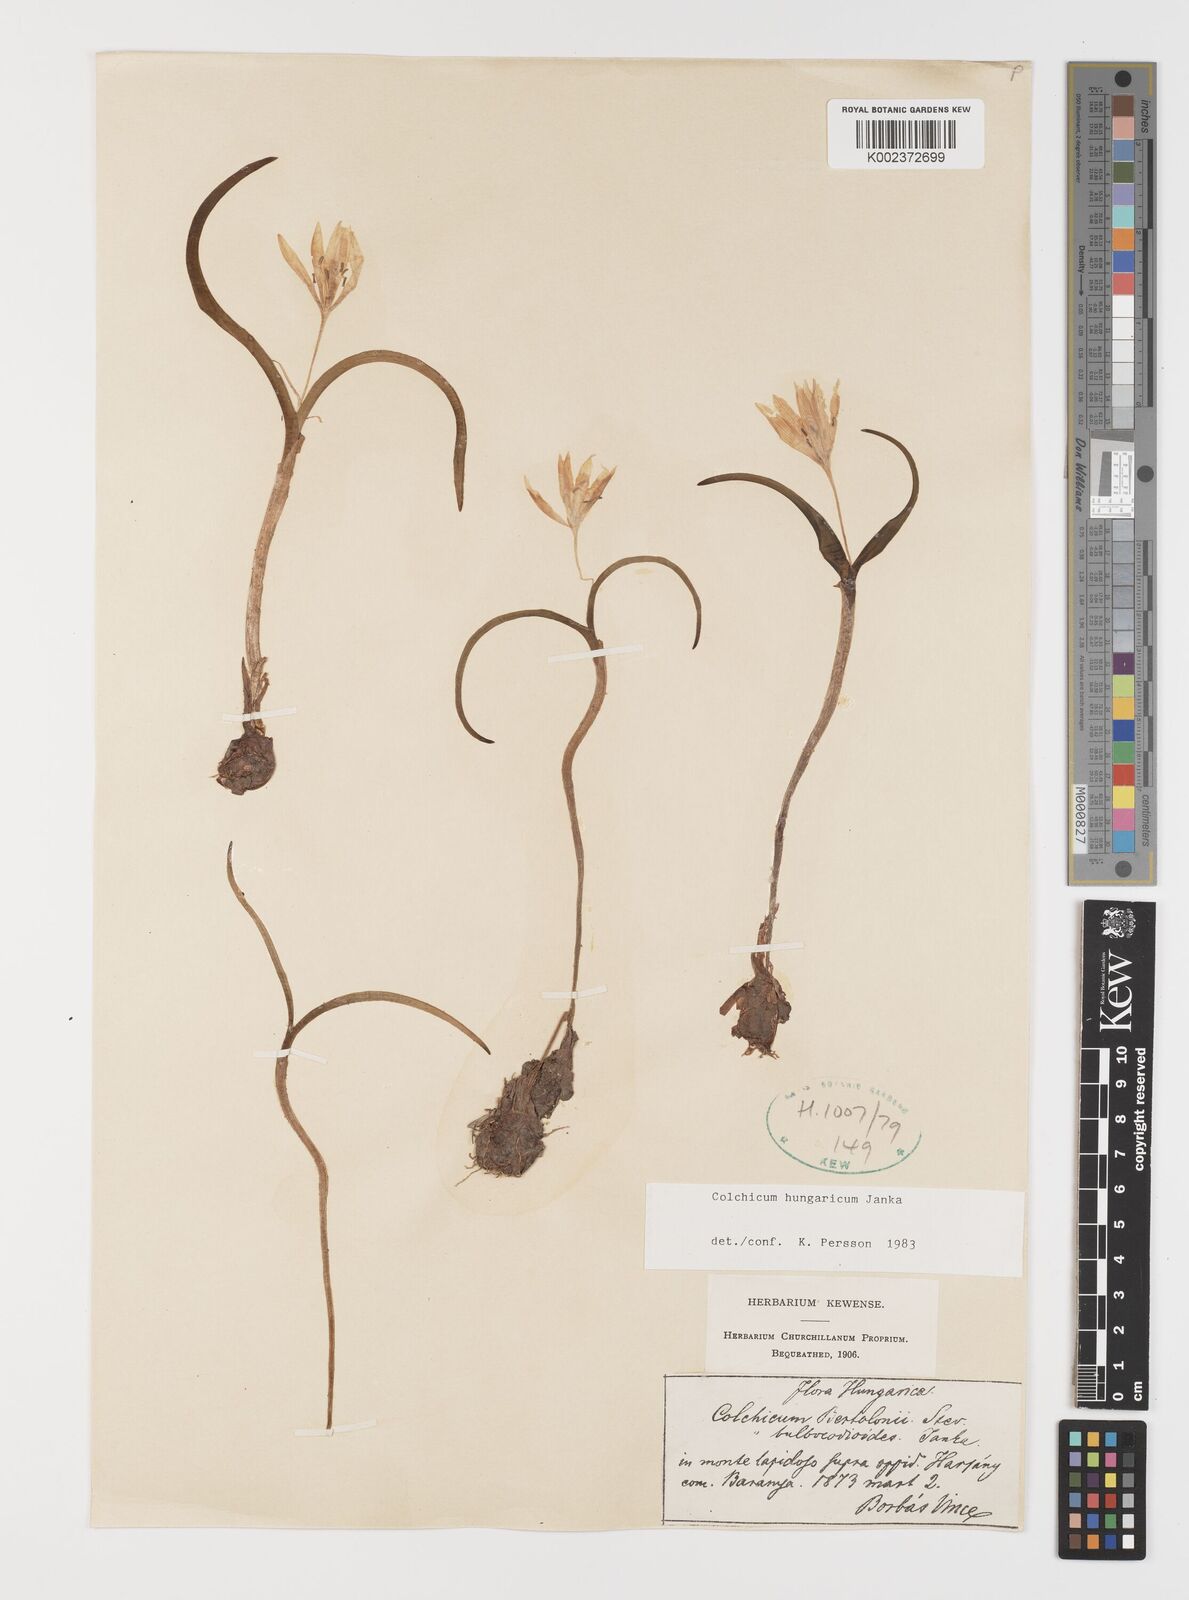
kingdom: Plantae
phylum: Tracheophyta
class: Liliopsida
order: Liliales
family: Colchicaceae
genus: Colchicum
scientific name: Colchicum hungaricum
